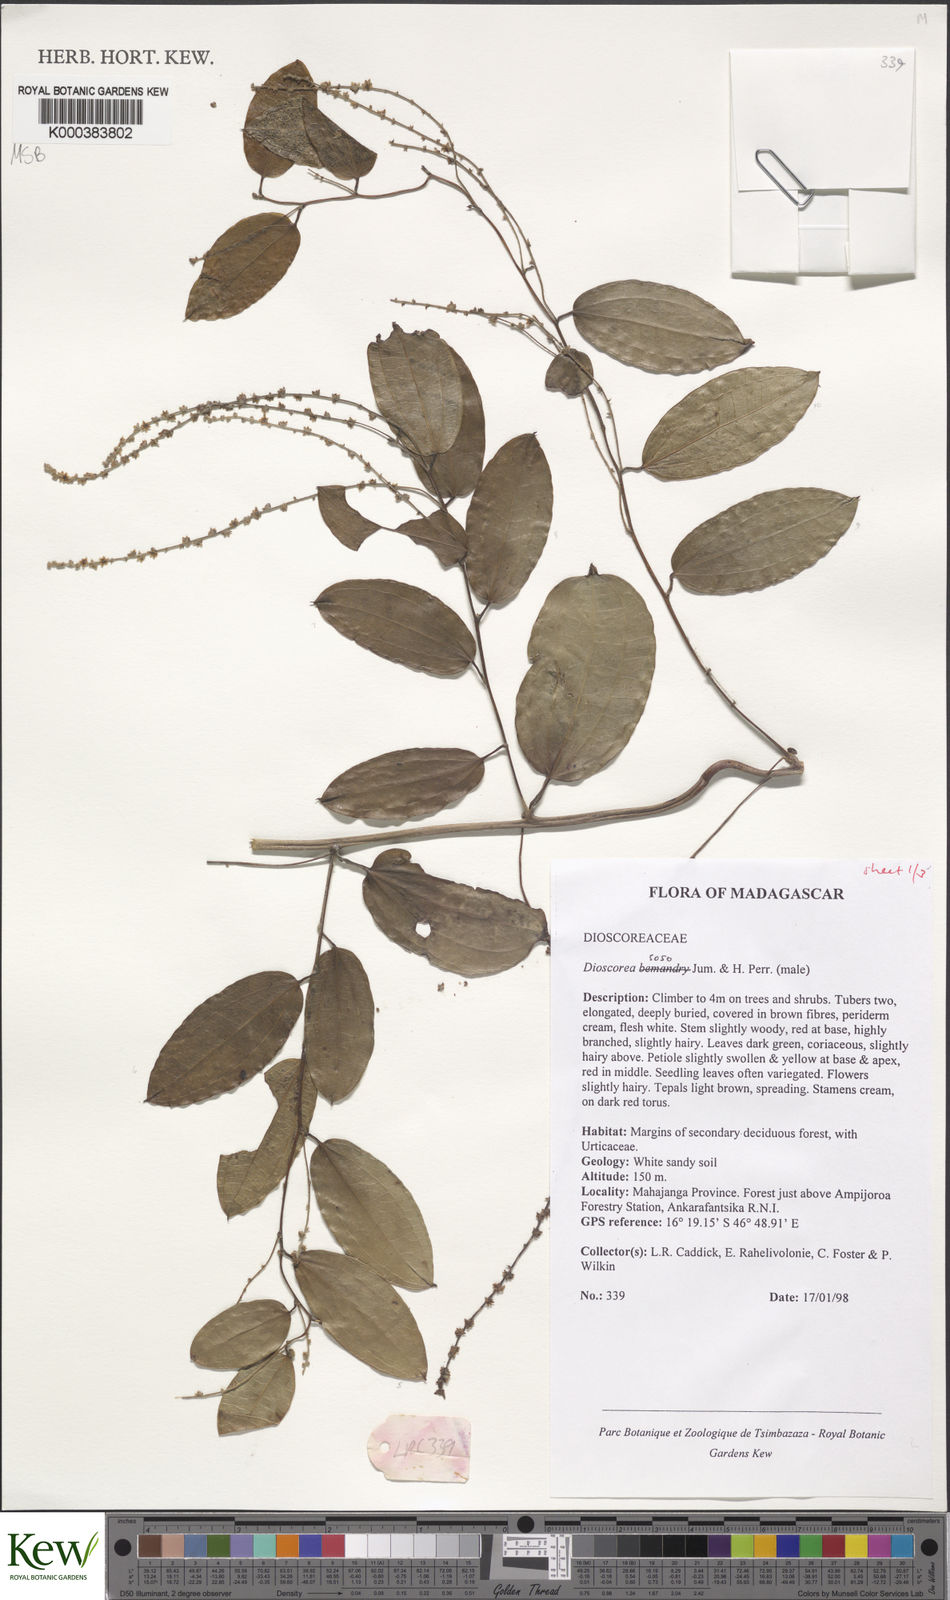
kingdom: Plantae
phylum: Tracheophyta
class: Liliopsida
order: Dioscoreales
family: Dioscoreaceae
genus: Dioscorea
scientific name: Dioscorea
